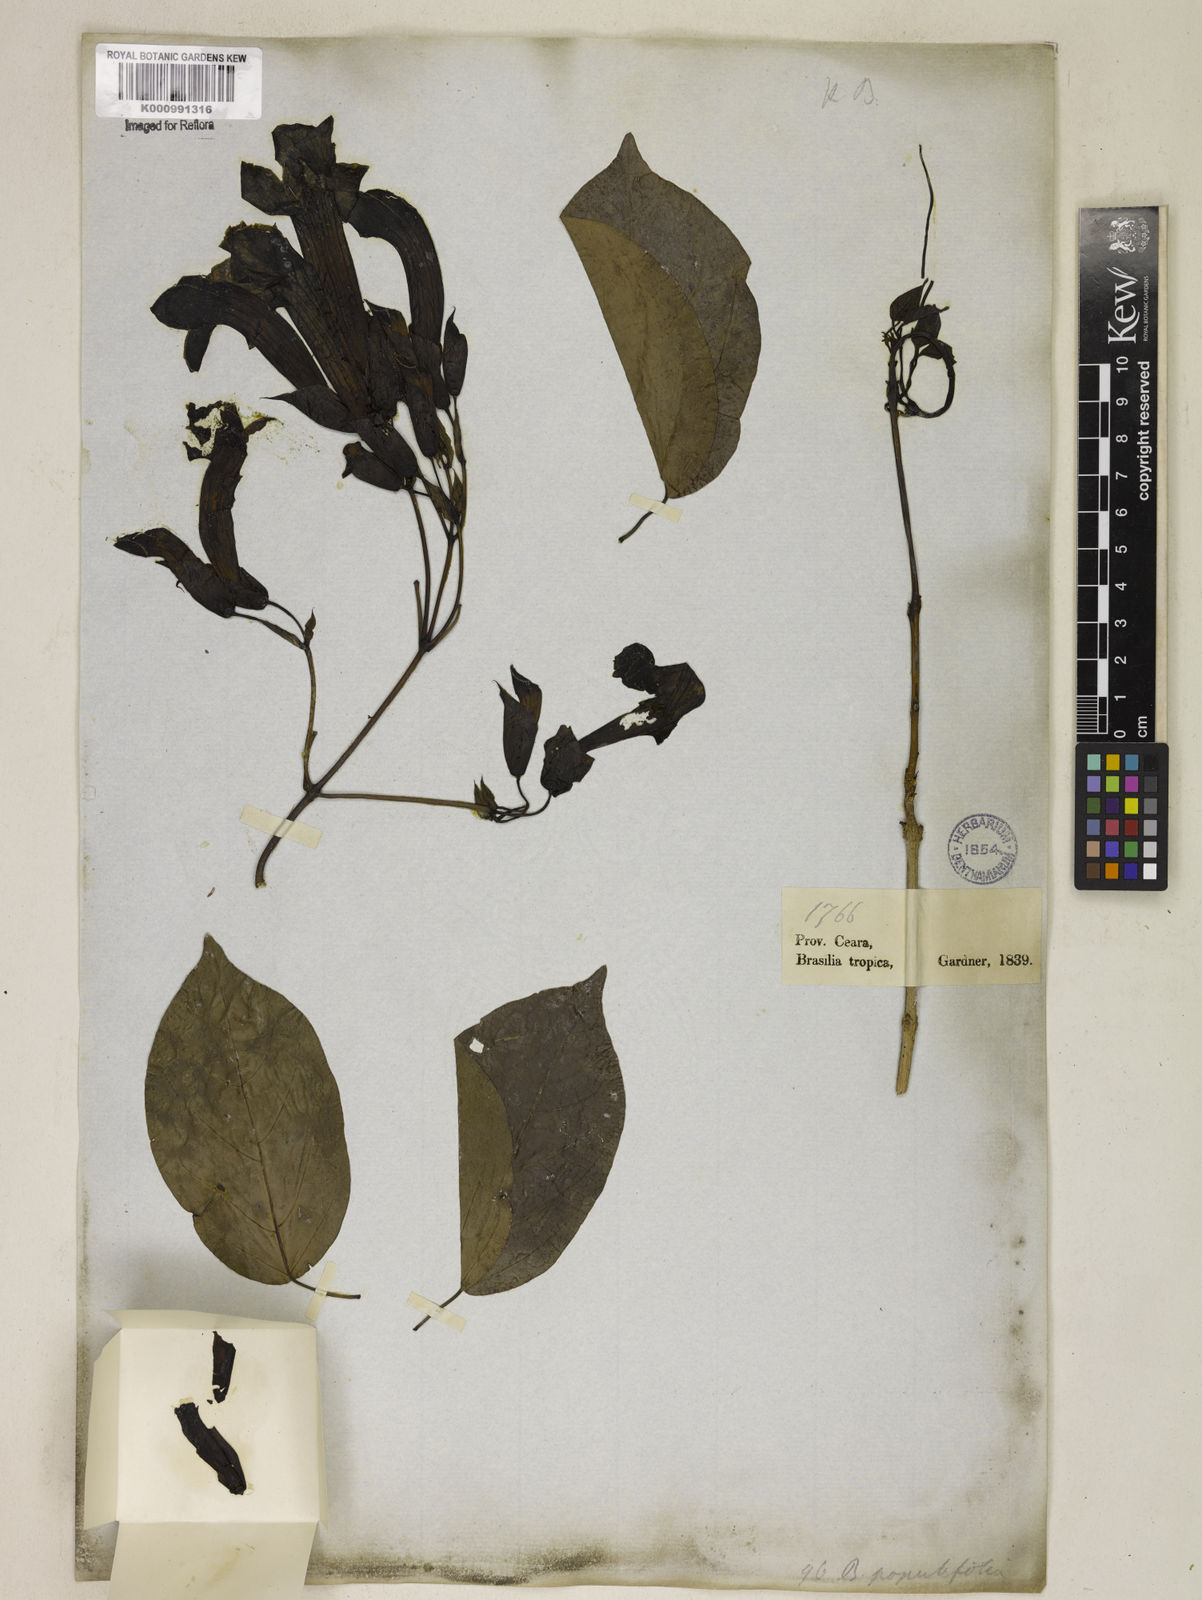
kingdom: Plantae
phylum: Tracheophyta
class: Magnoliopsida
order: Lamiales
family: Bignoniaceae
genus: Dolichandra
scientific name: Dolichandra quadrivalvis
